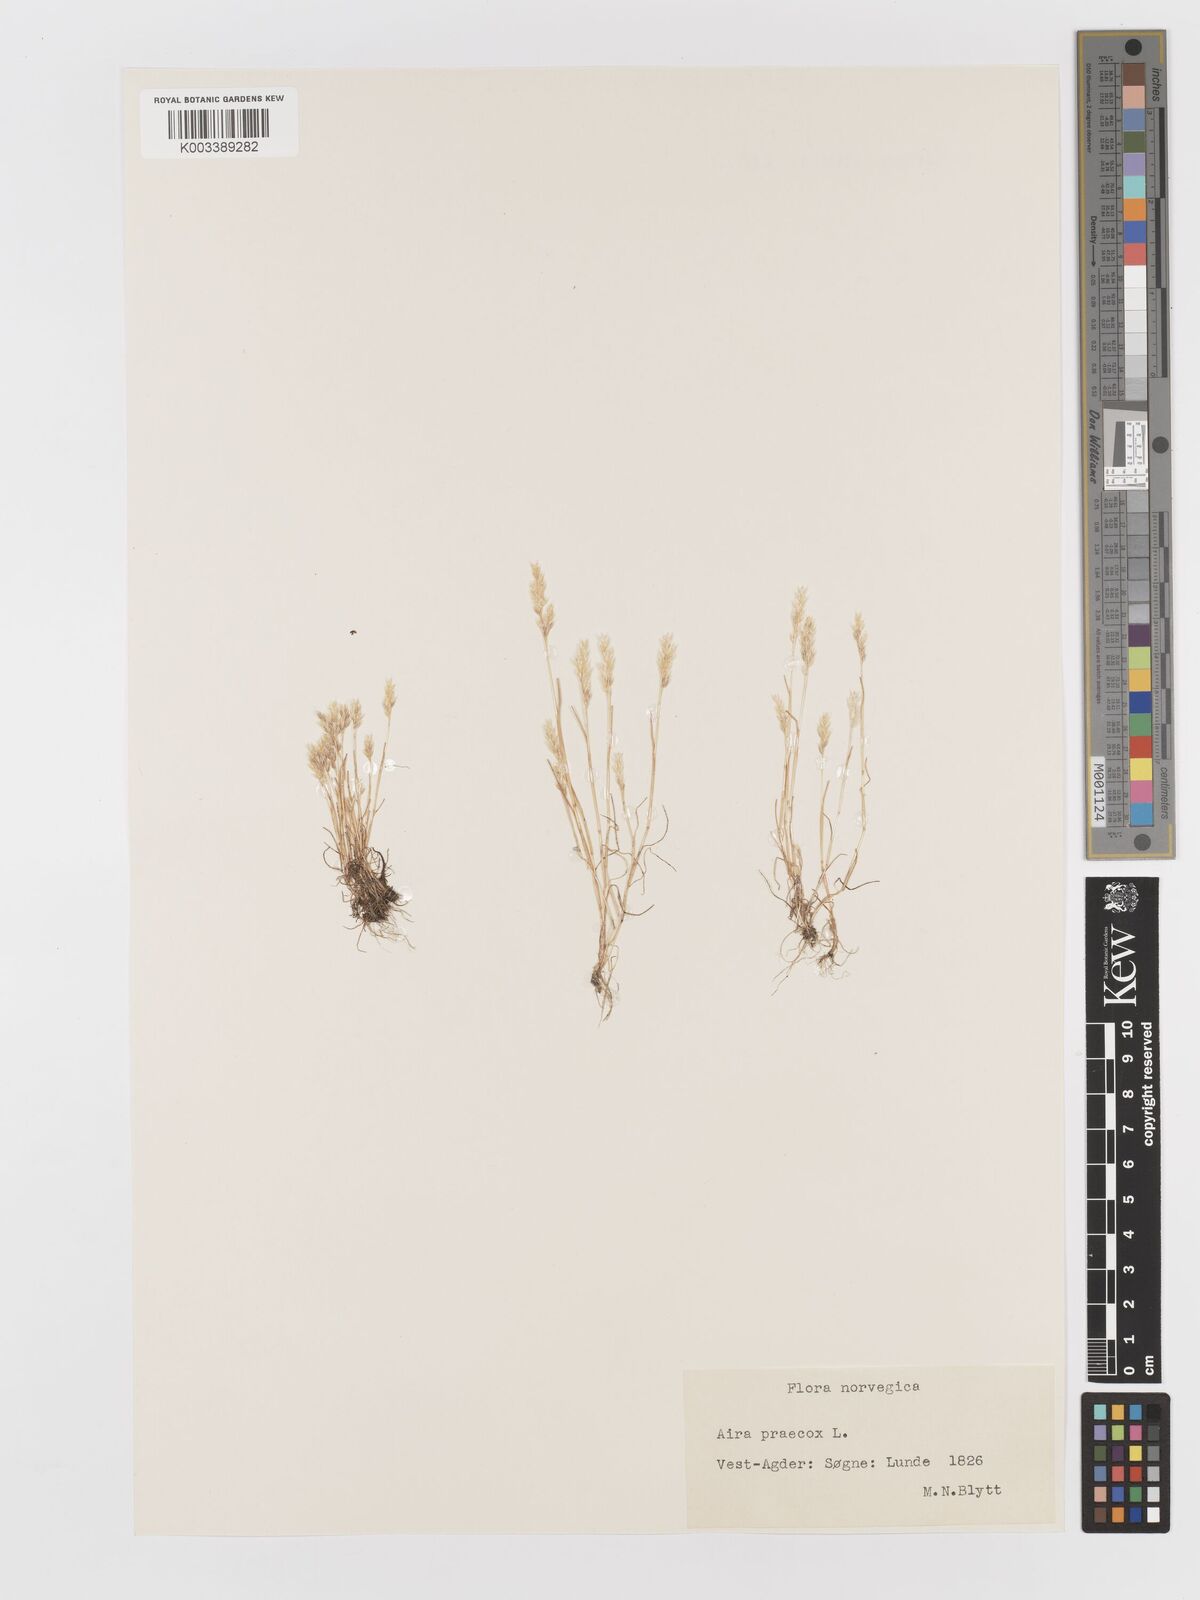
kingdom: Plantae
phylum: Tracheophyta
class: Liliopsida
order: Poales
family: Poaceae
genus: Aira
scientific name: Aira praecox
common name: Early hair-grass
